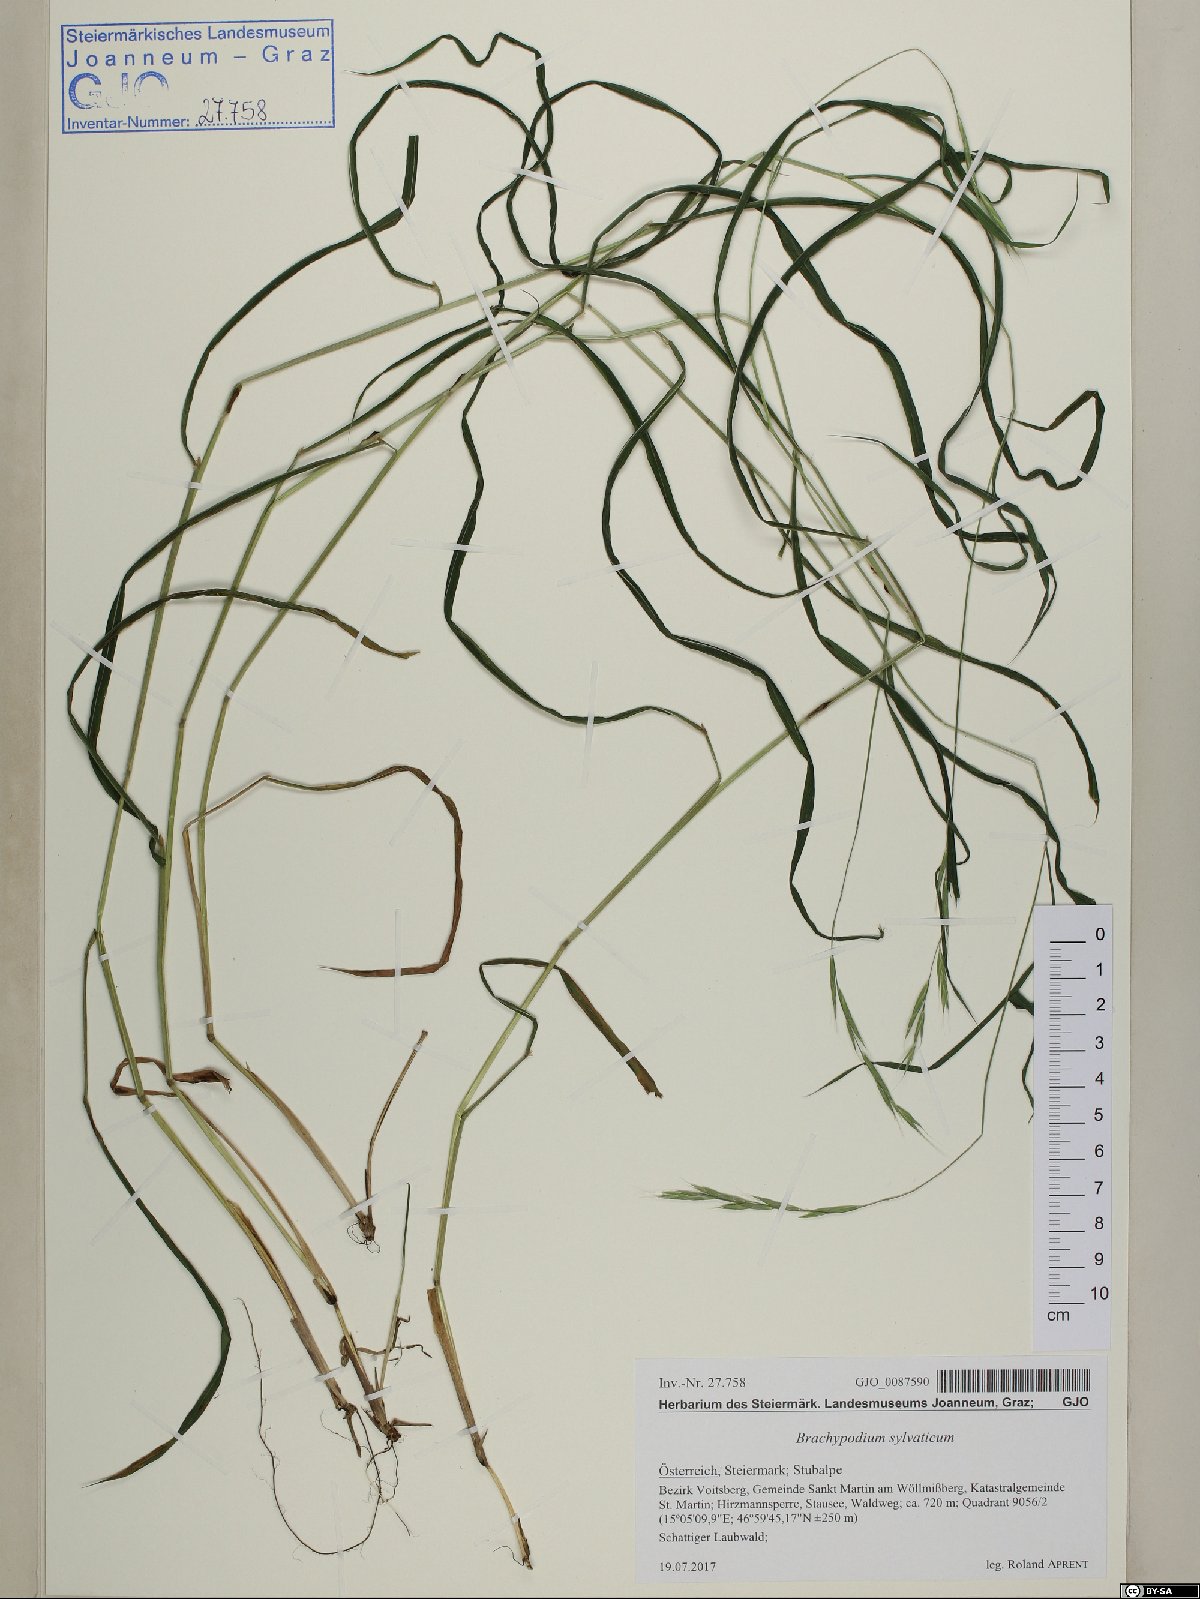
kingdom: Plantae
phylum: Tracheophyta
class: Liliopsida
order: Poales
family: Poaceae
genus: Brachypodium
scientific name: Brachypodium sylvaticum
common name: False-brome
